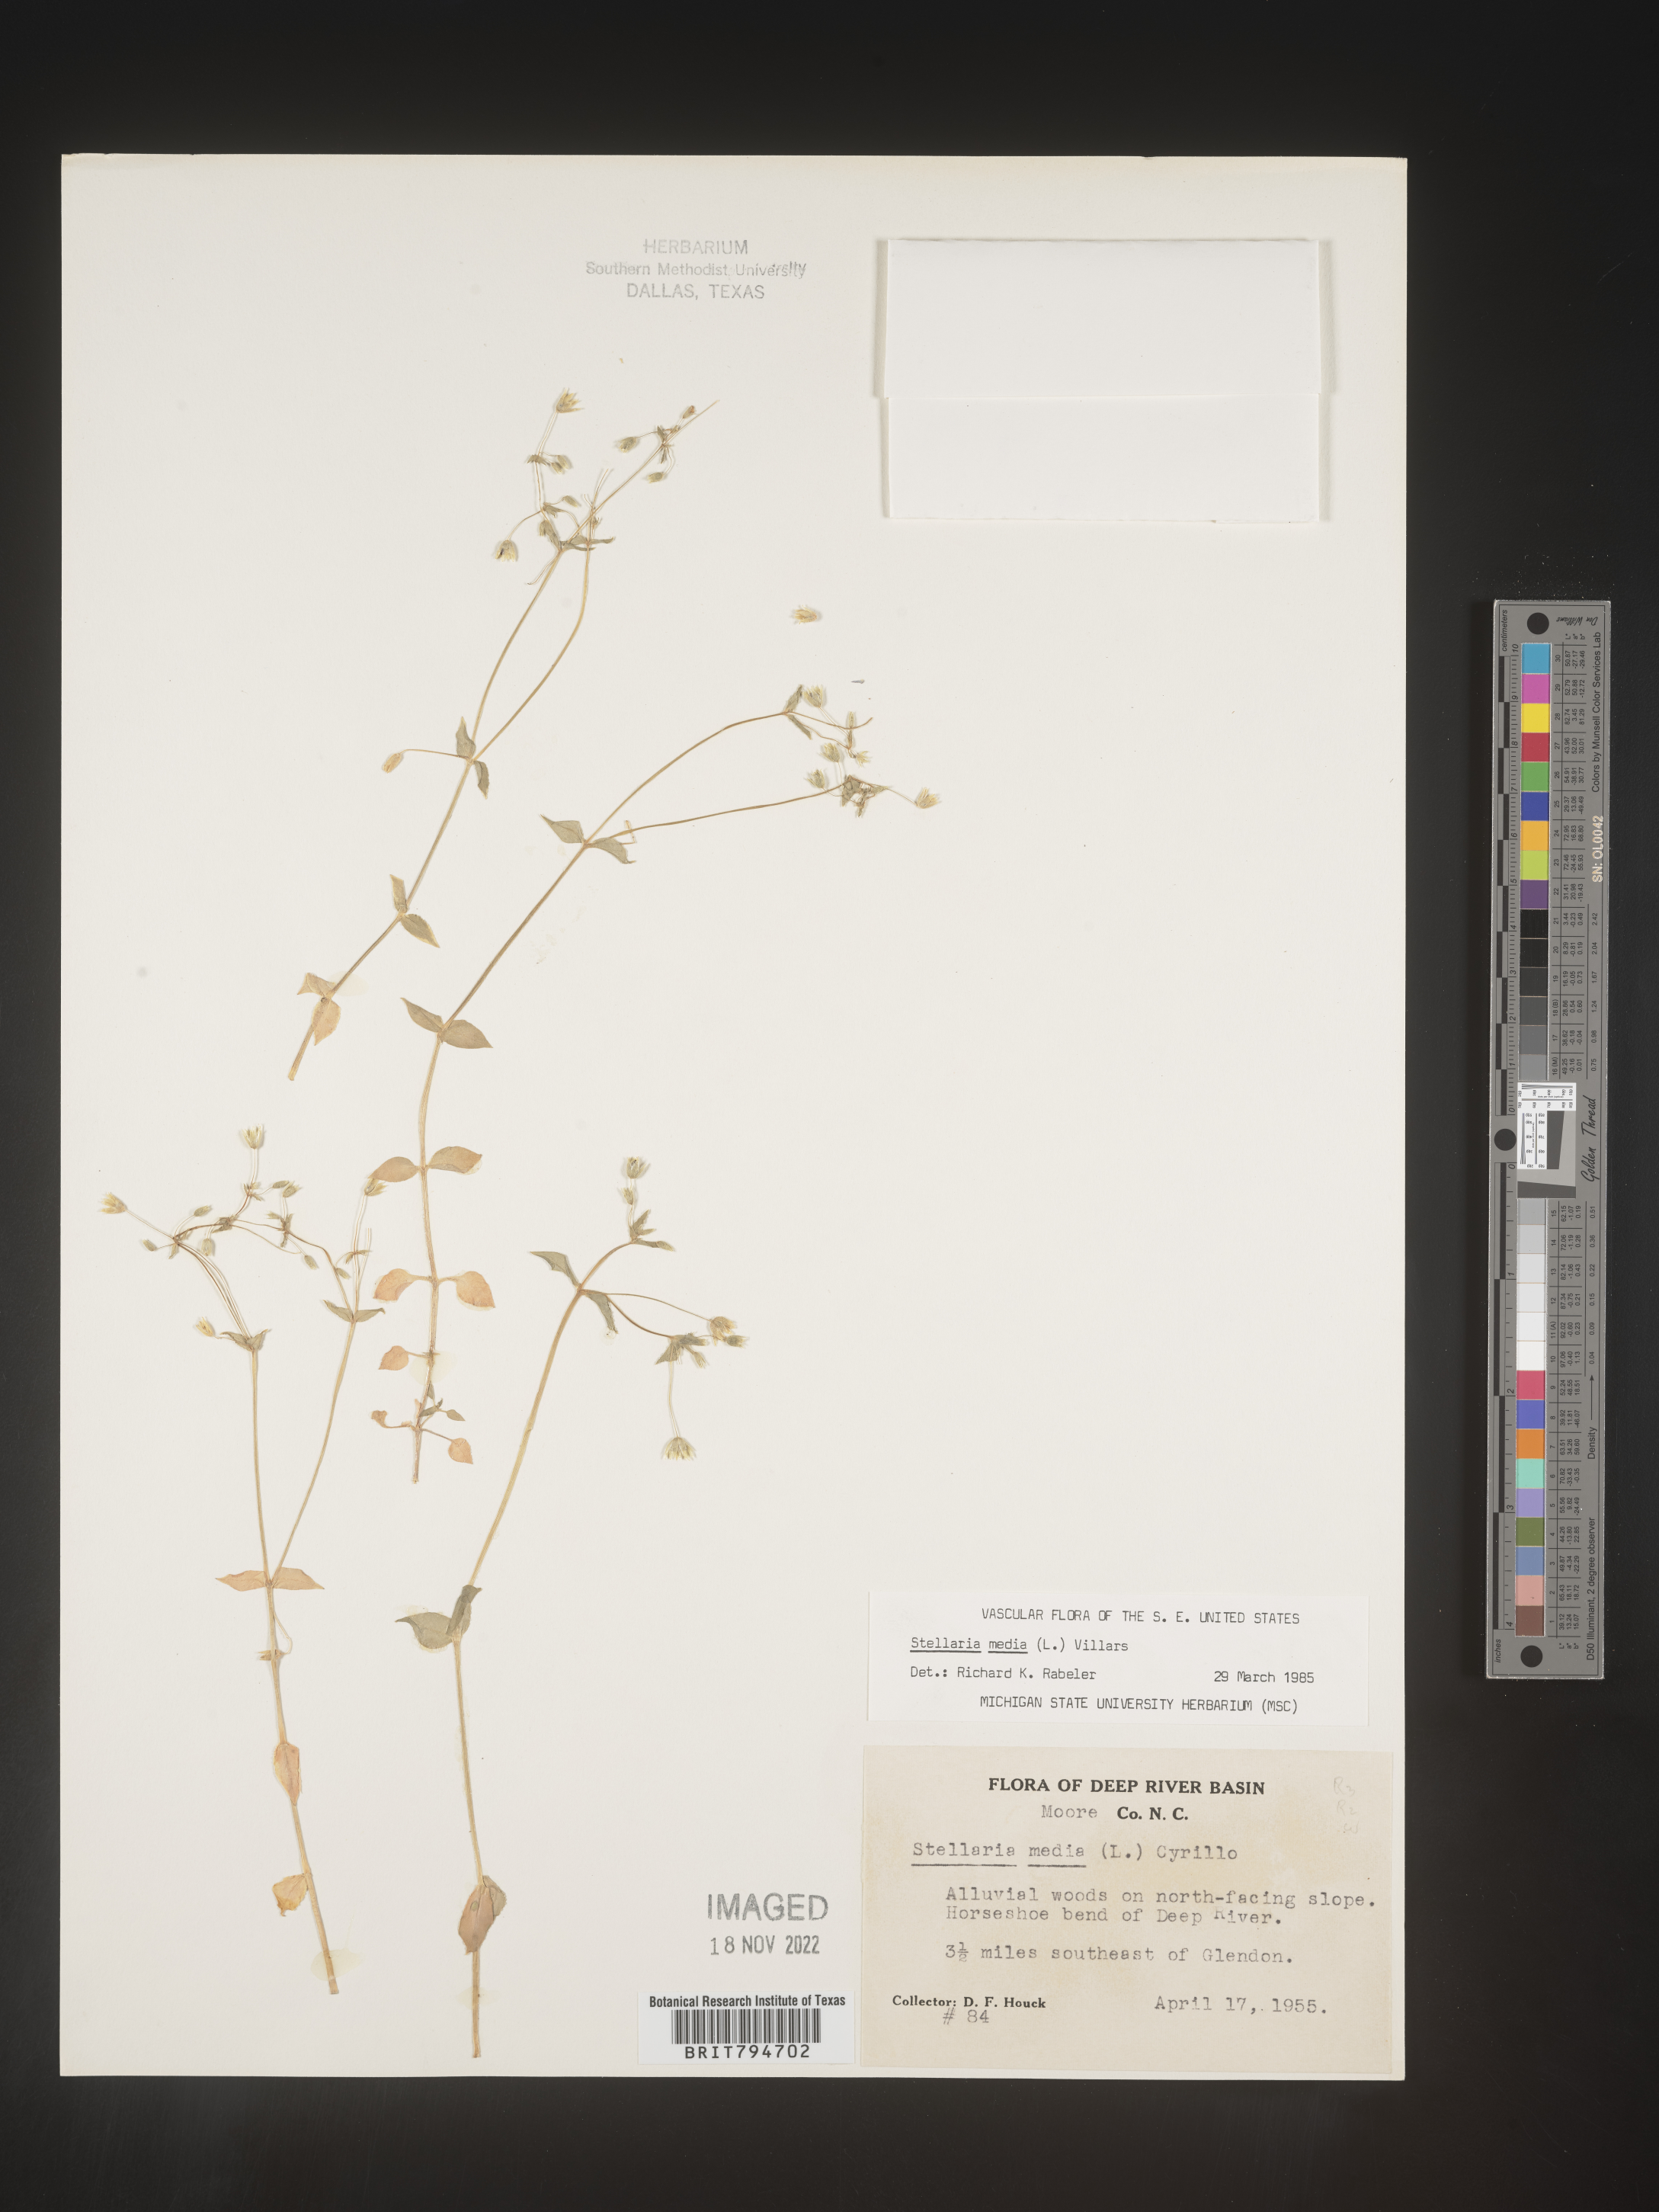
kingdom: Plantae
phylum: Tracheophyta
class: Magnoliopsida
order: Caryophyllales
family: Caryophyllaceae
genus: Stellaria
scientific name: Stellaria media
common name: Common chickweed
